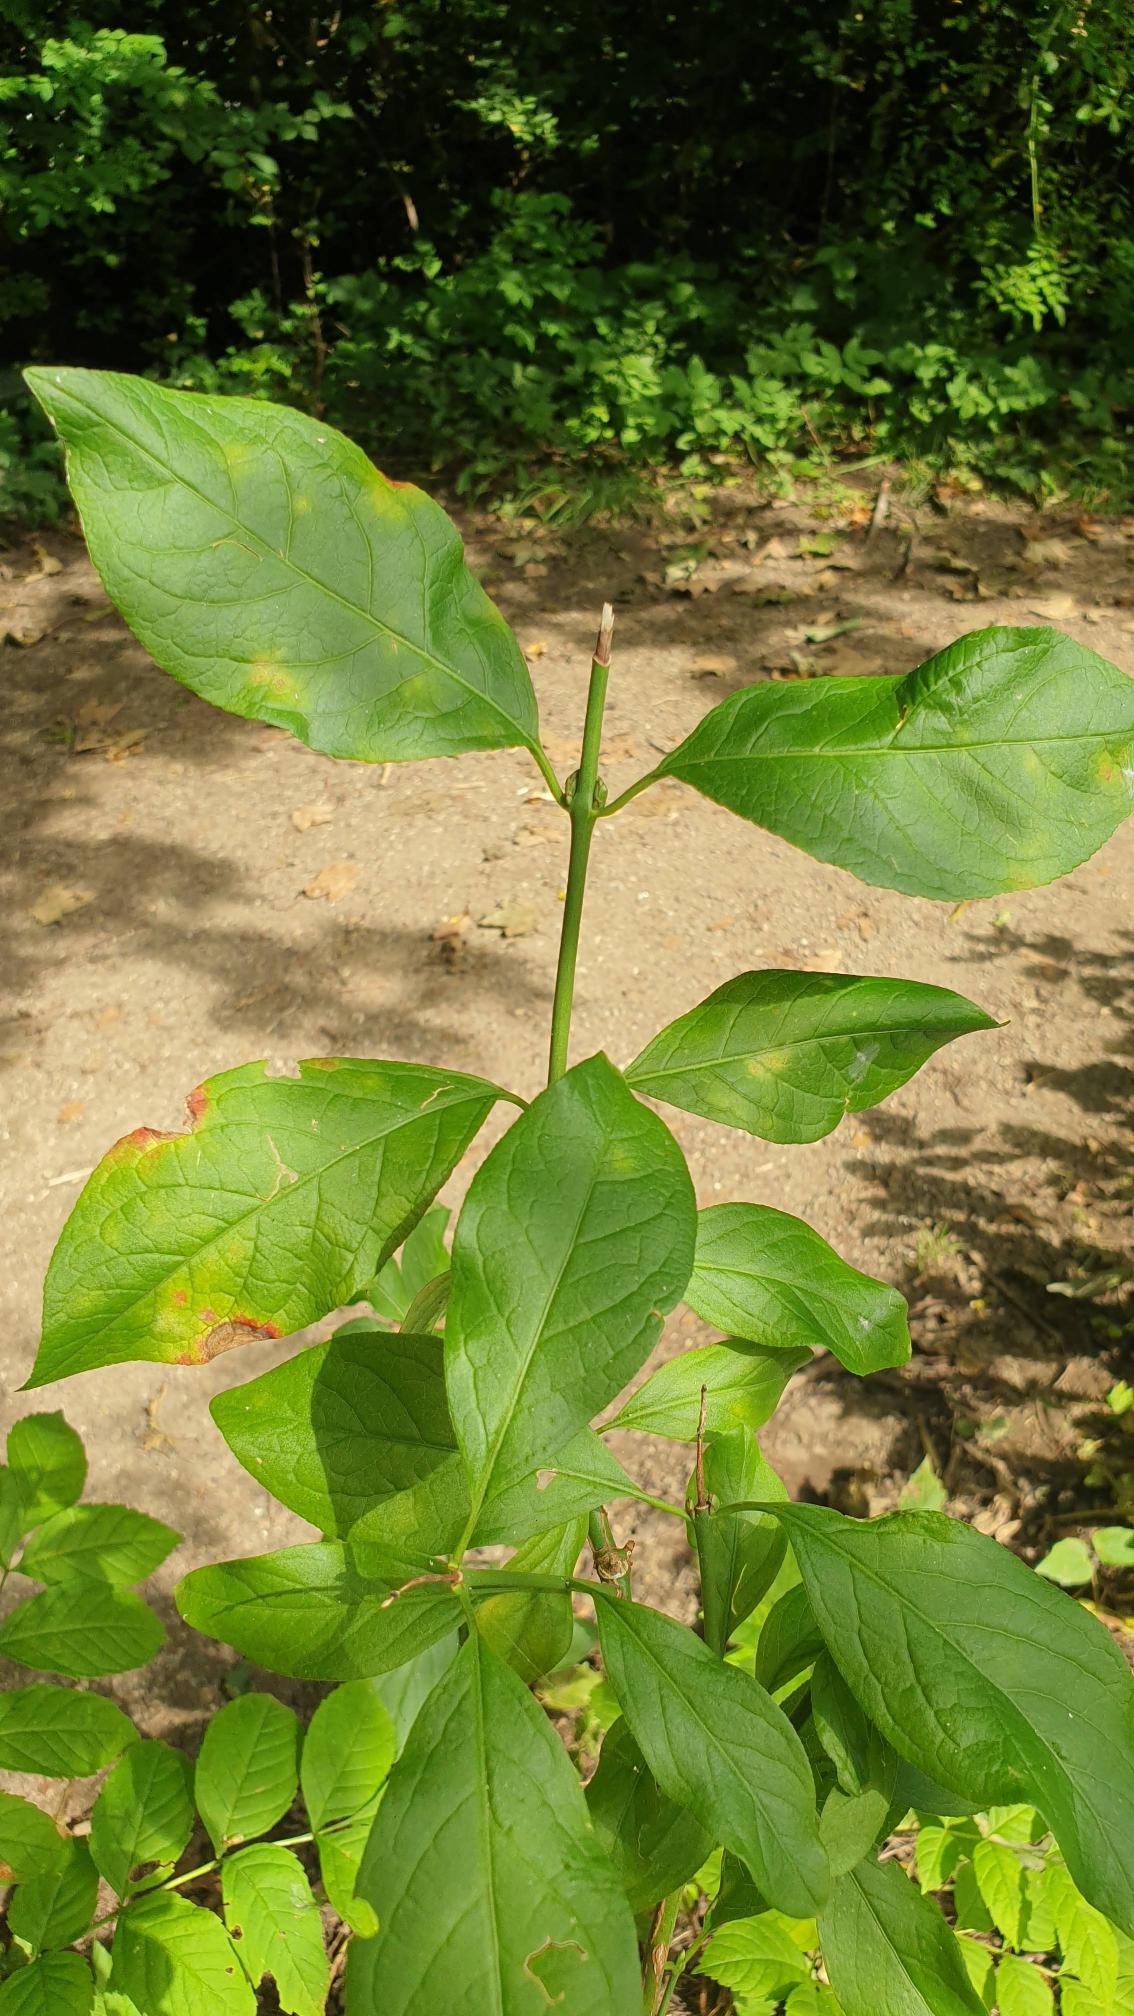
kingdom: Plantae
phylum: Tracheophyta
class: Magnoliopsida
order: Celastrales
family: Celastraceae
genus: Euonymus
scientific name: Euonymus europaeus
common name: Benved
